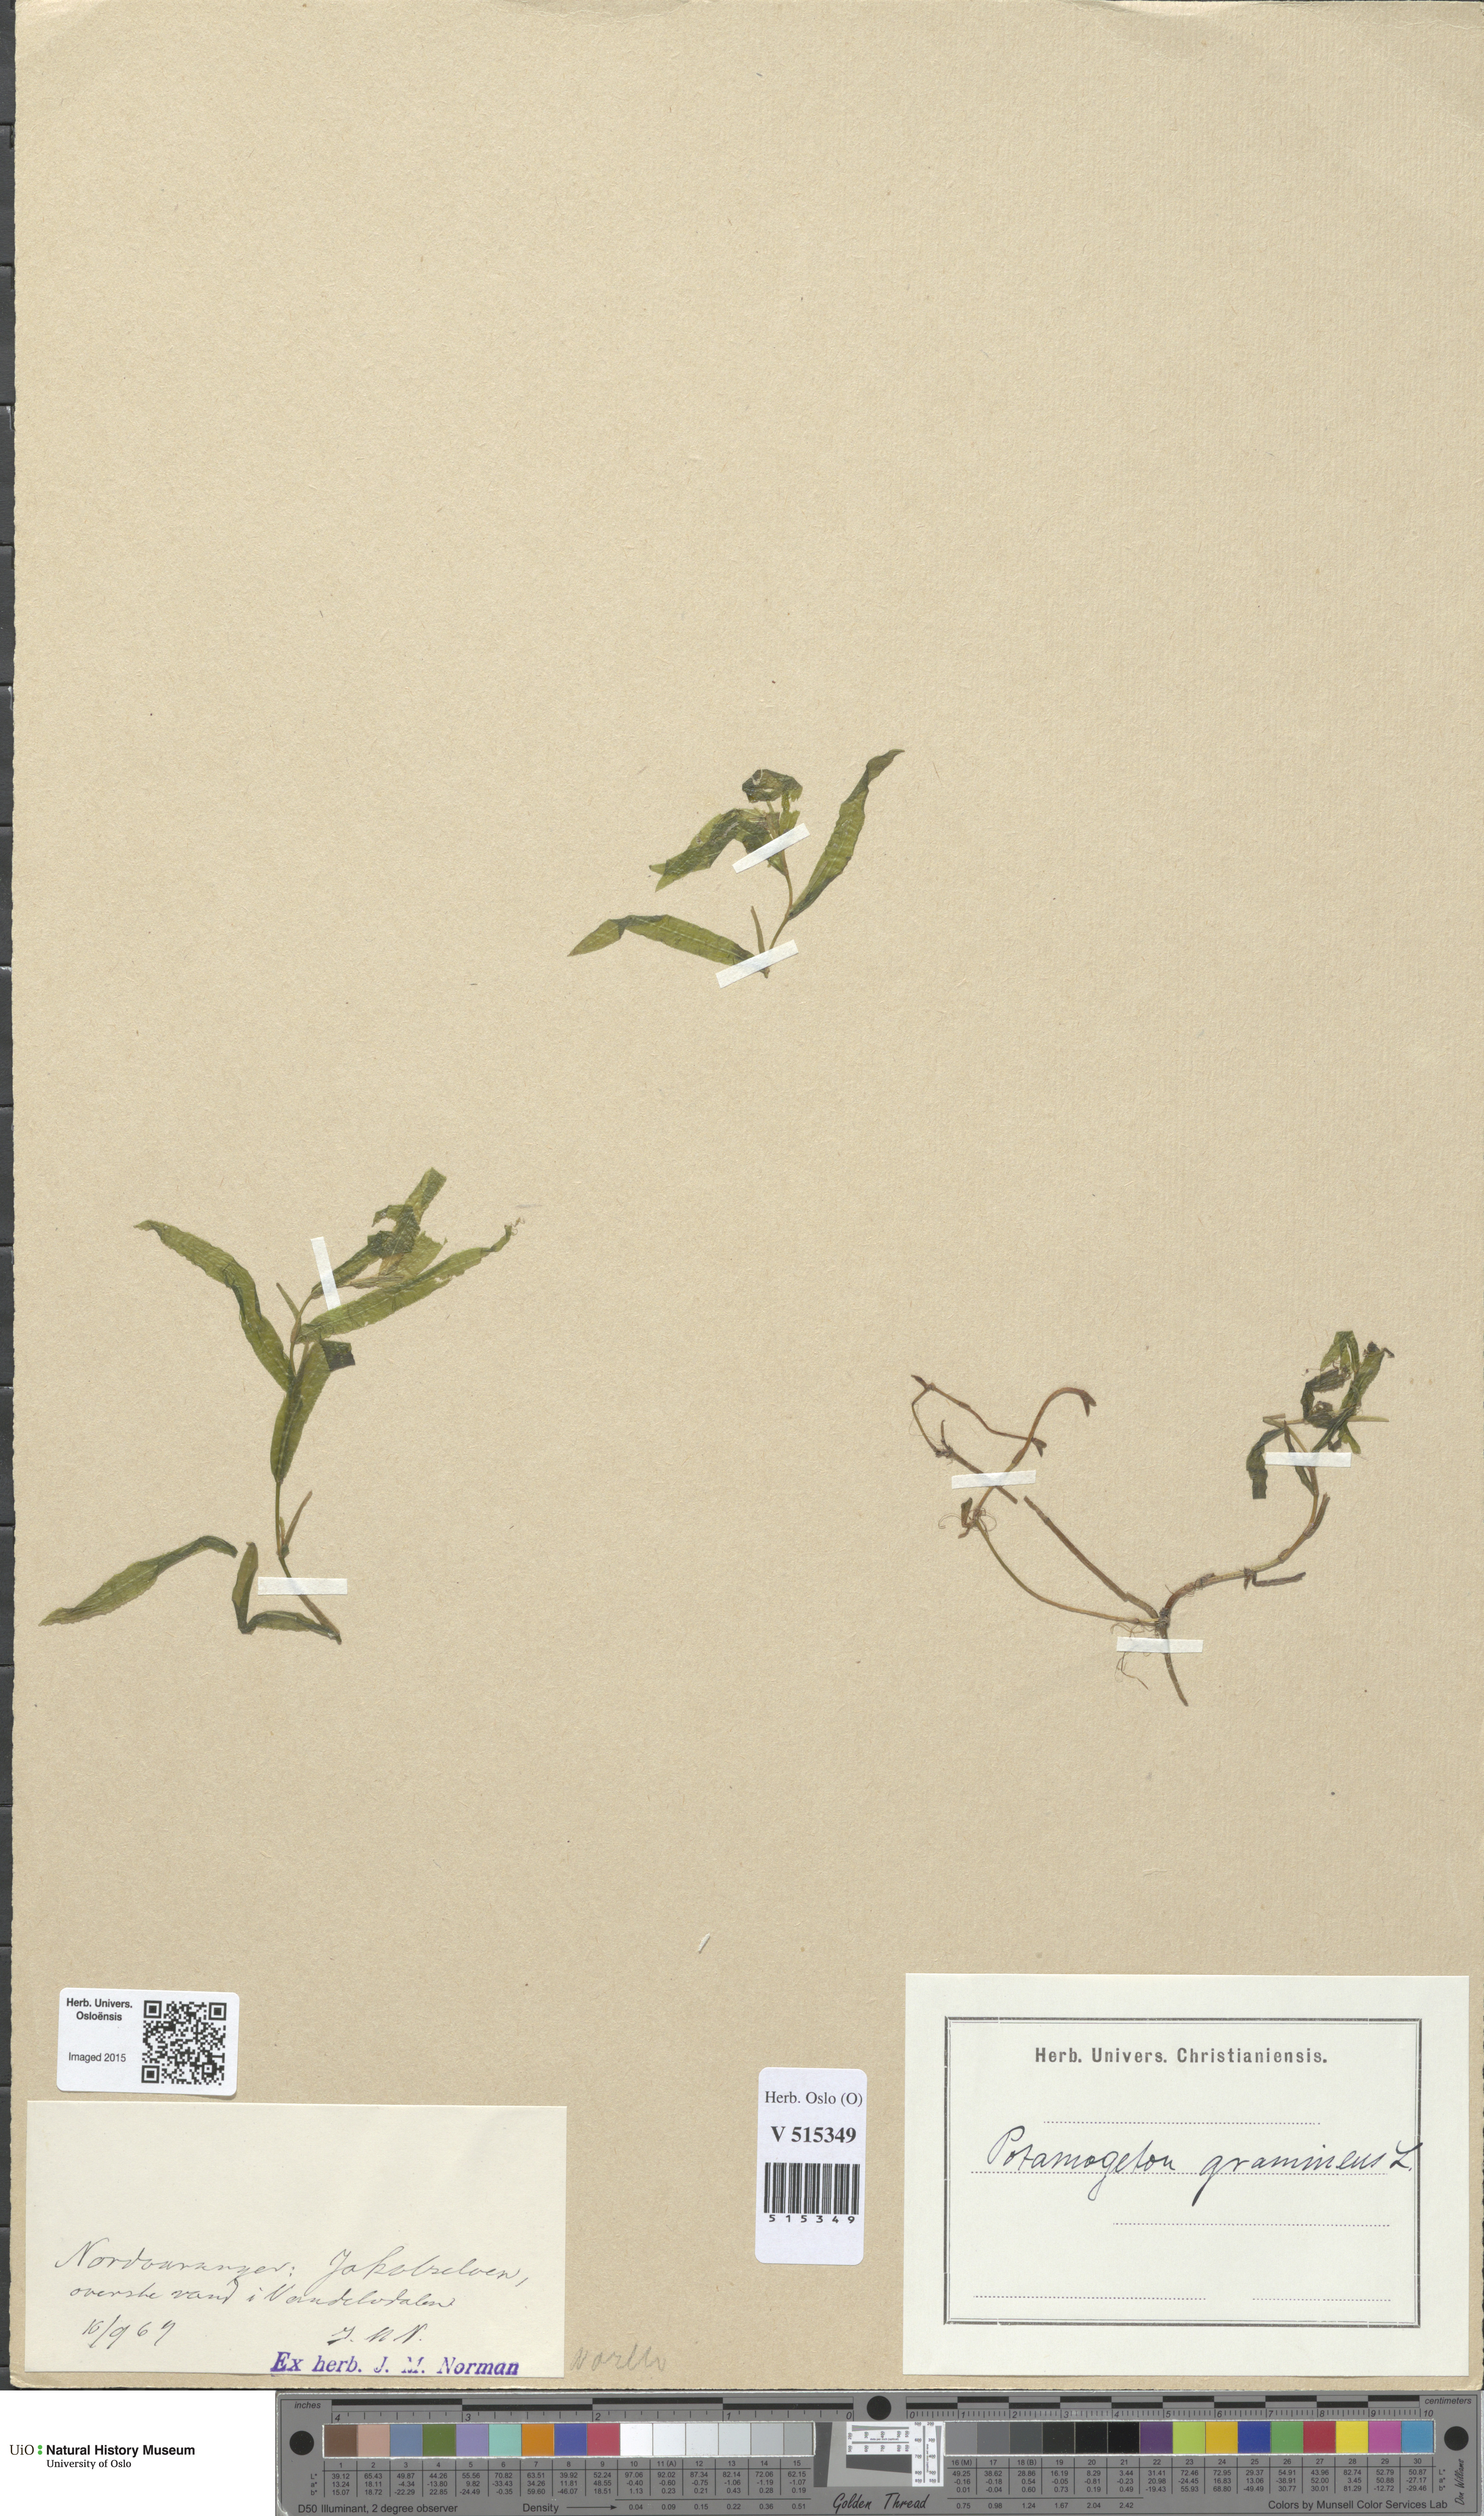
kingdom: Plantae
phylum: Tracheophyta
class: Liliopsida
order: Alismatales
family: Potamogetonaceae
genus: Potamogeton
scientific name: Potamogeton gramineus
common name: Various-leaved pondweed
